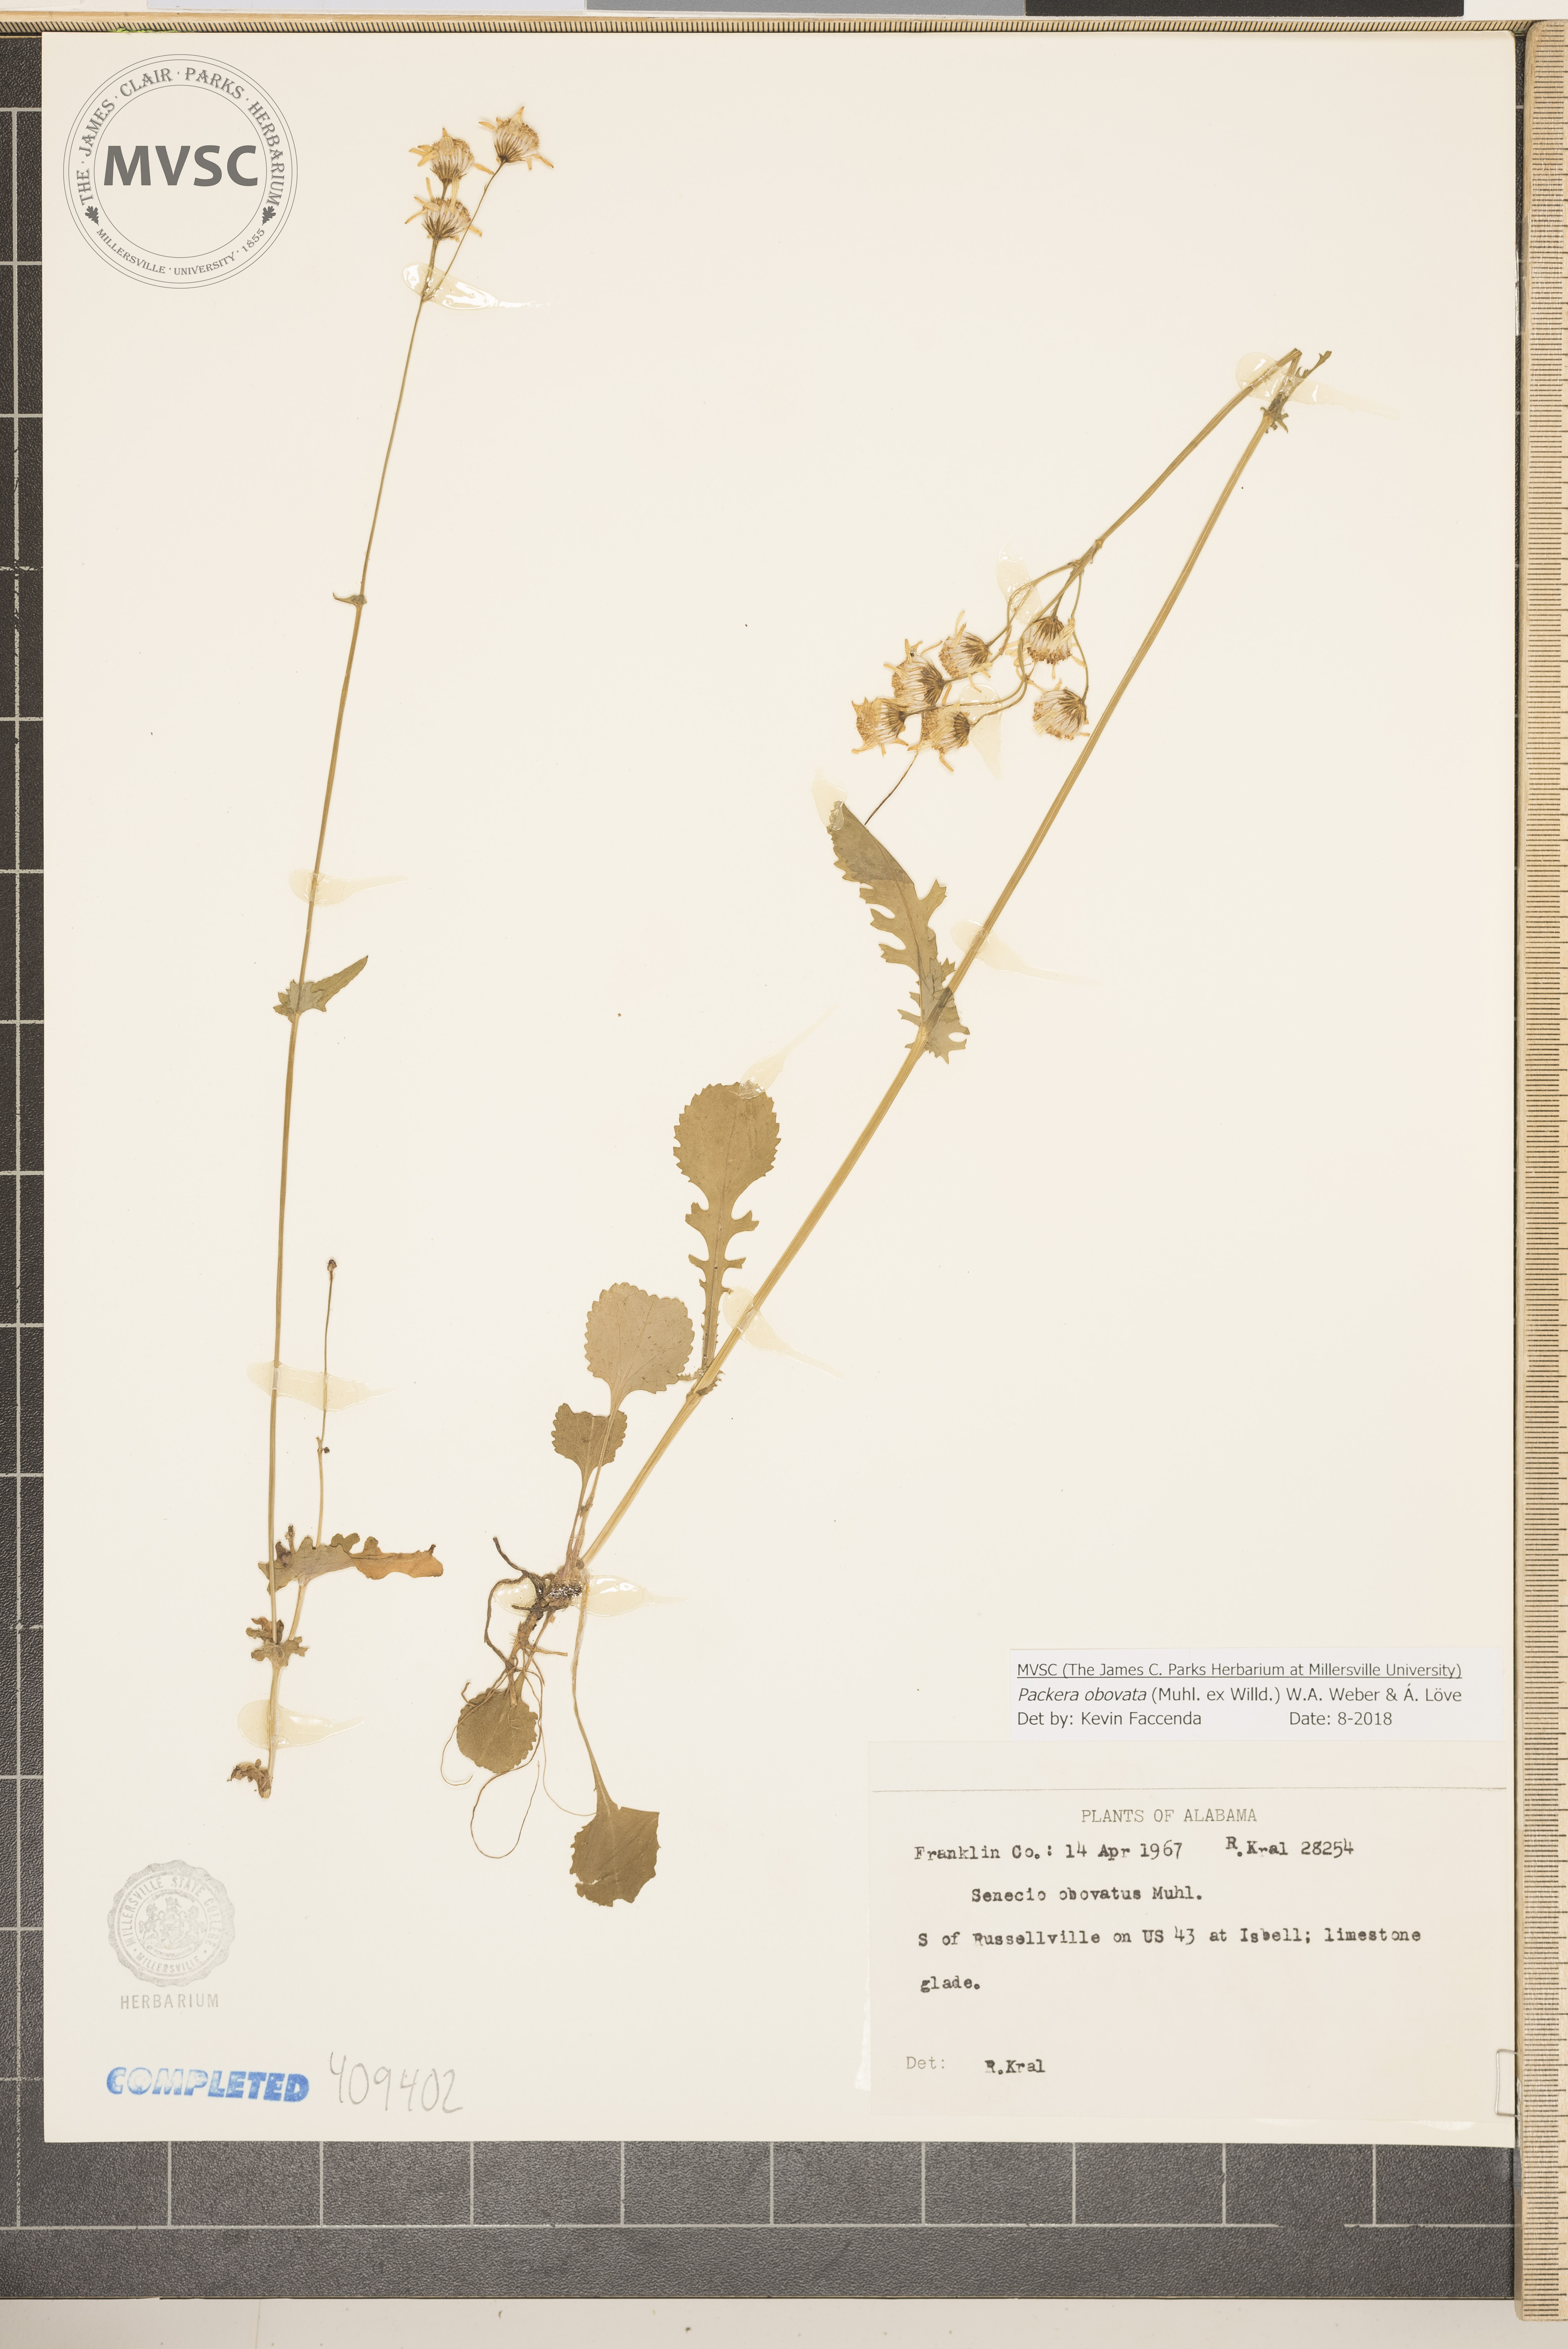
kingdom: Plantae
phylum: Tracheophyta
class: Magnoliopsida
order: Asterales
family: Asteraceae
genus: Packera
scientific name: Packera obovata
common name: Round-leaf ragwort
